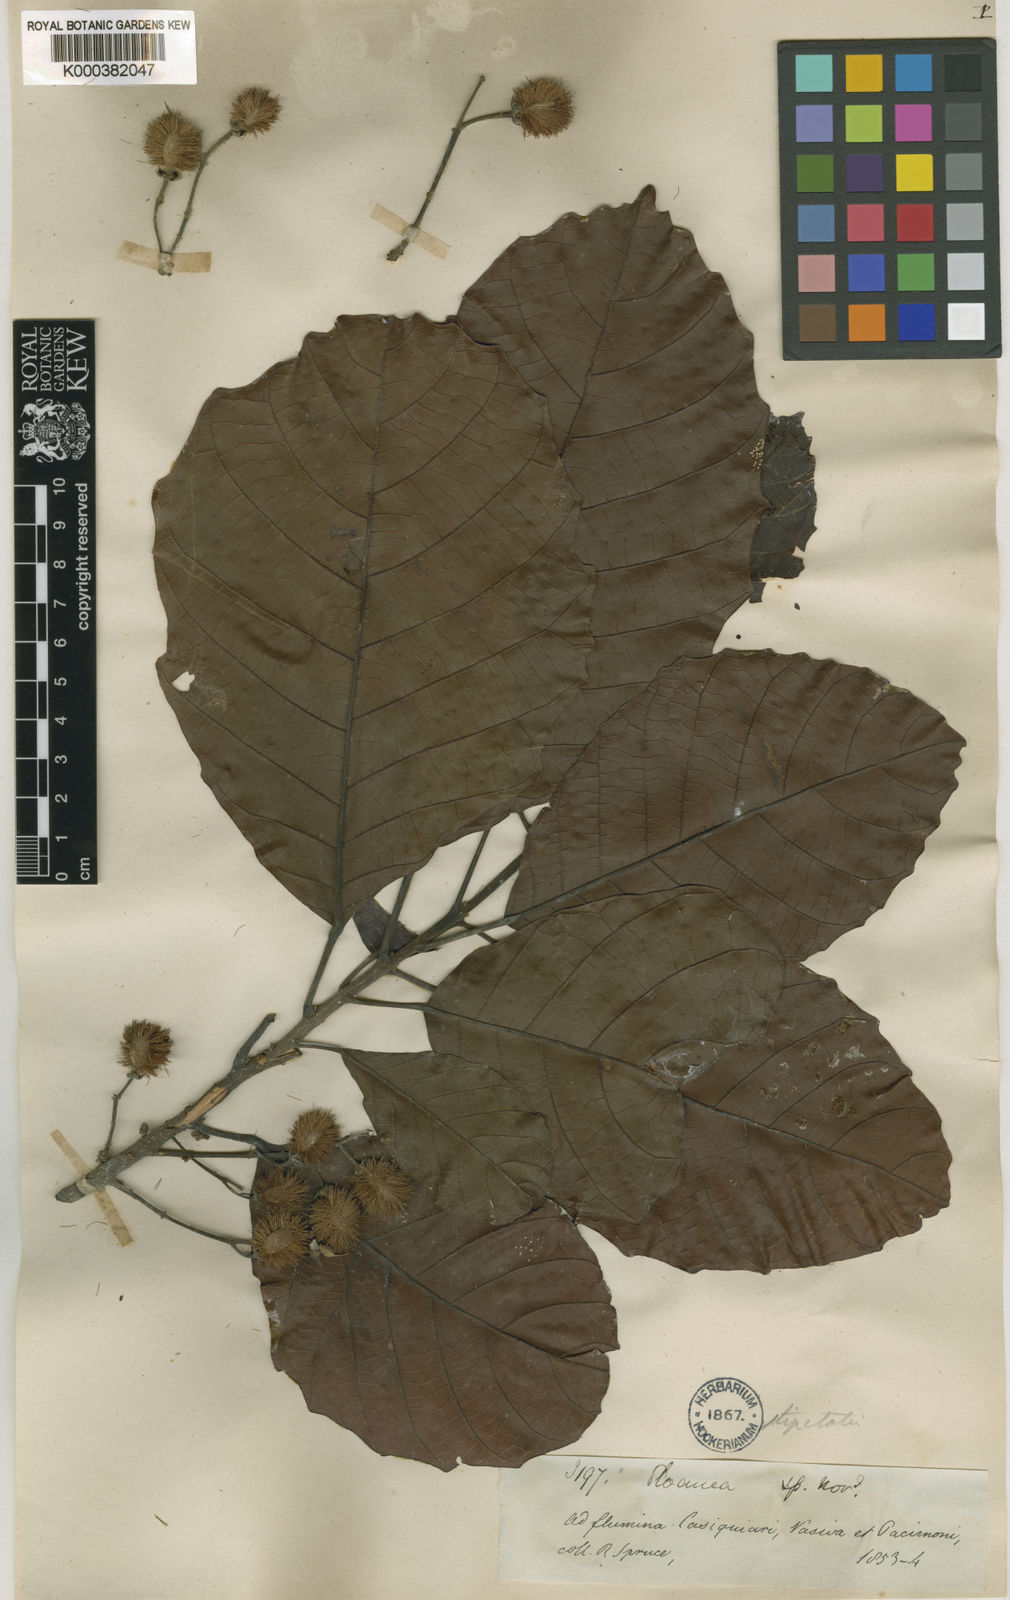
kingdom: Plantae
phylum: Tracheophyta
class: Magnoliopsida
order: Oxalidales
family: Elaeocarpaceae
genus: Sloanea
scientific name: Sloanea guianensis
